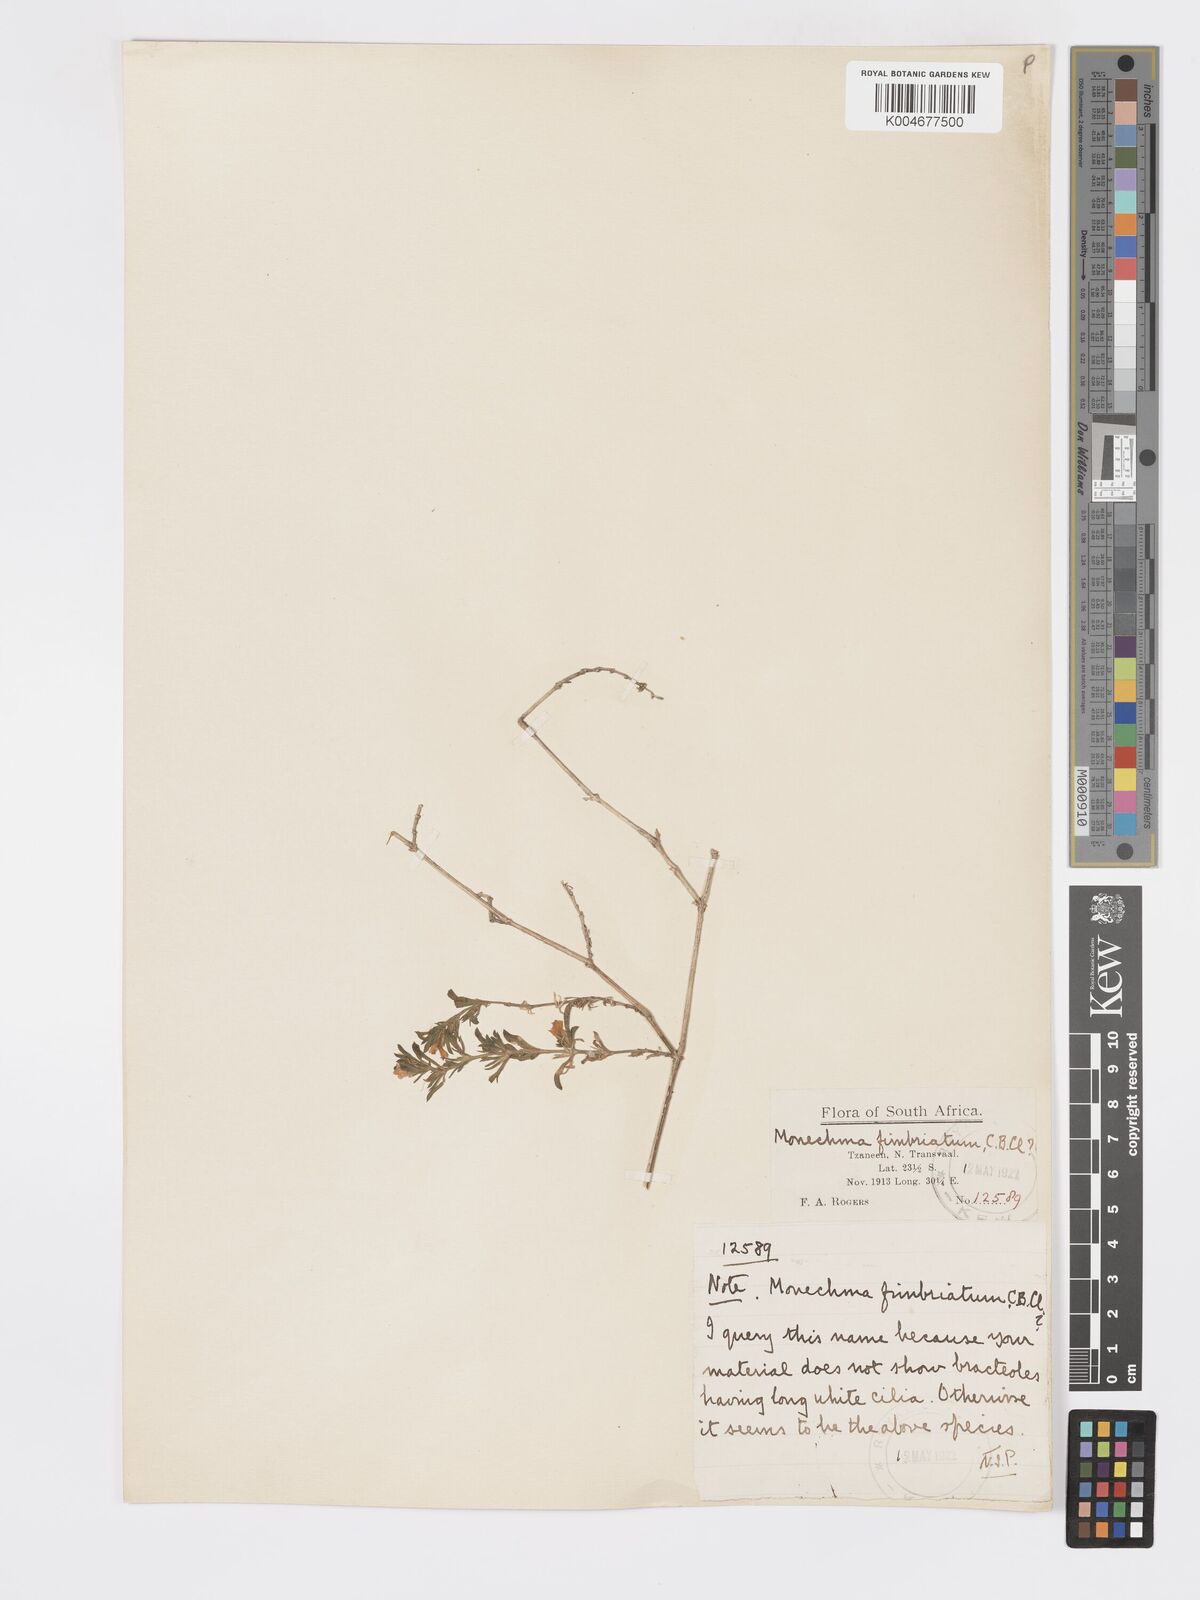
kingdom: Plantae
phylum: Tracheophyta
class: Magnoliopsida
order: Lamiales
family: Acanthaceae
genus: Pogonospermum
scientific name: Pogonospermum
